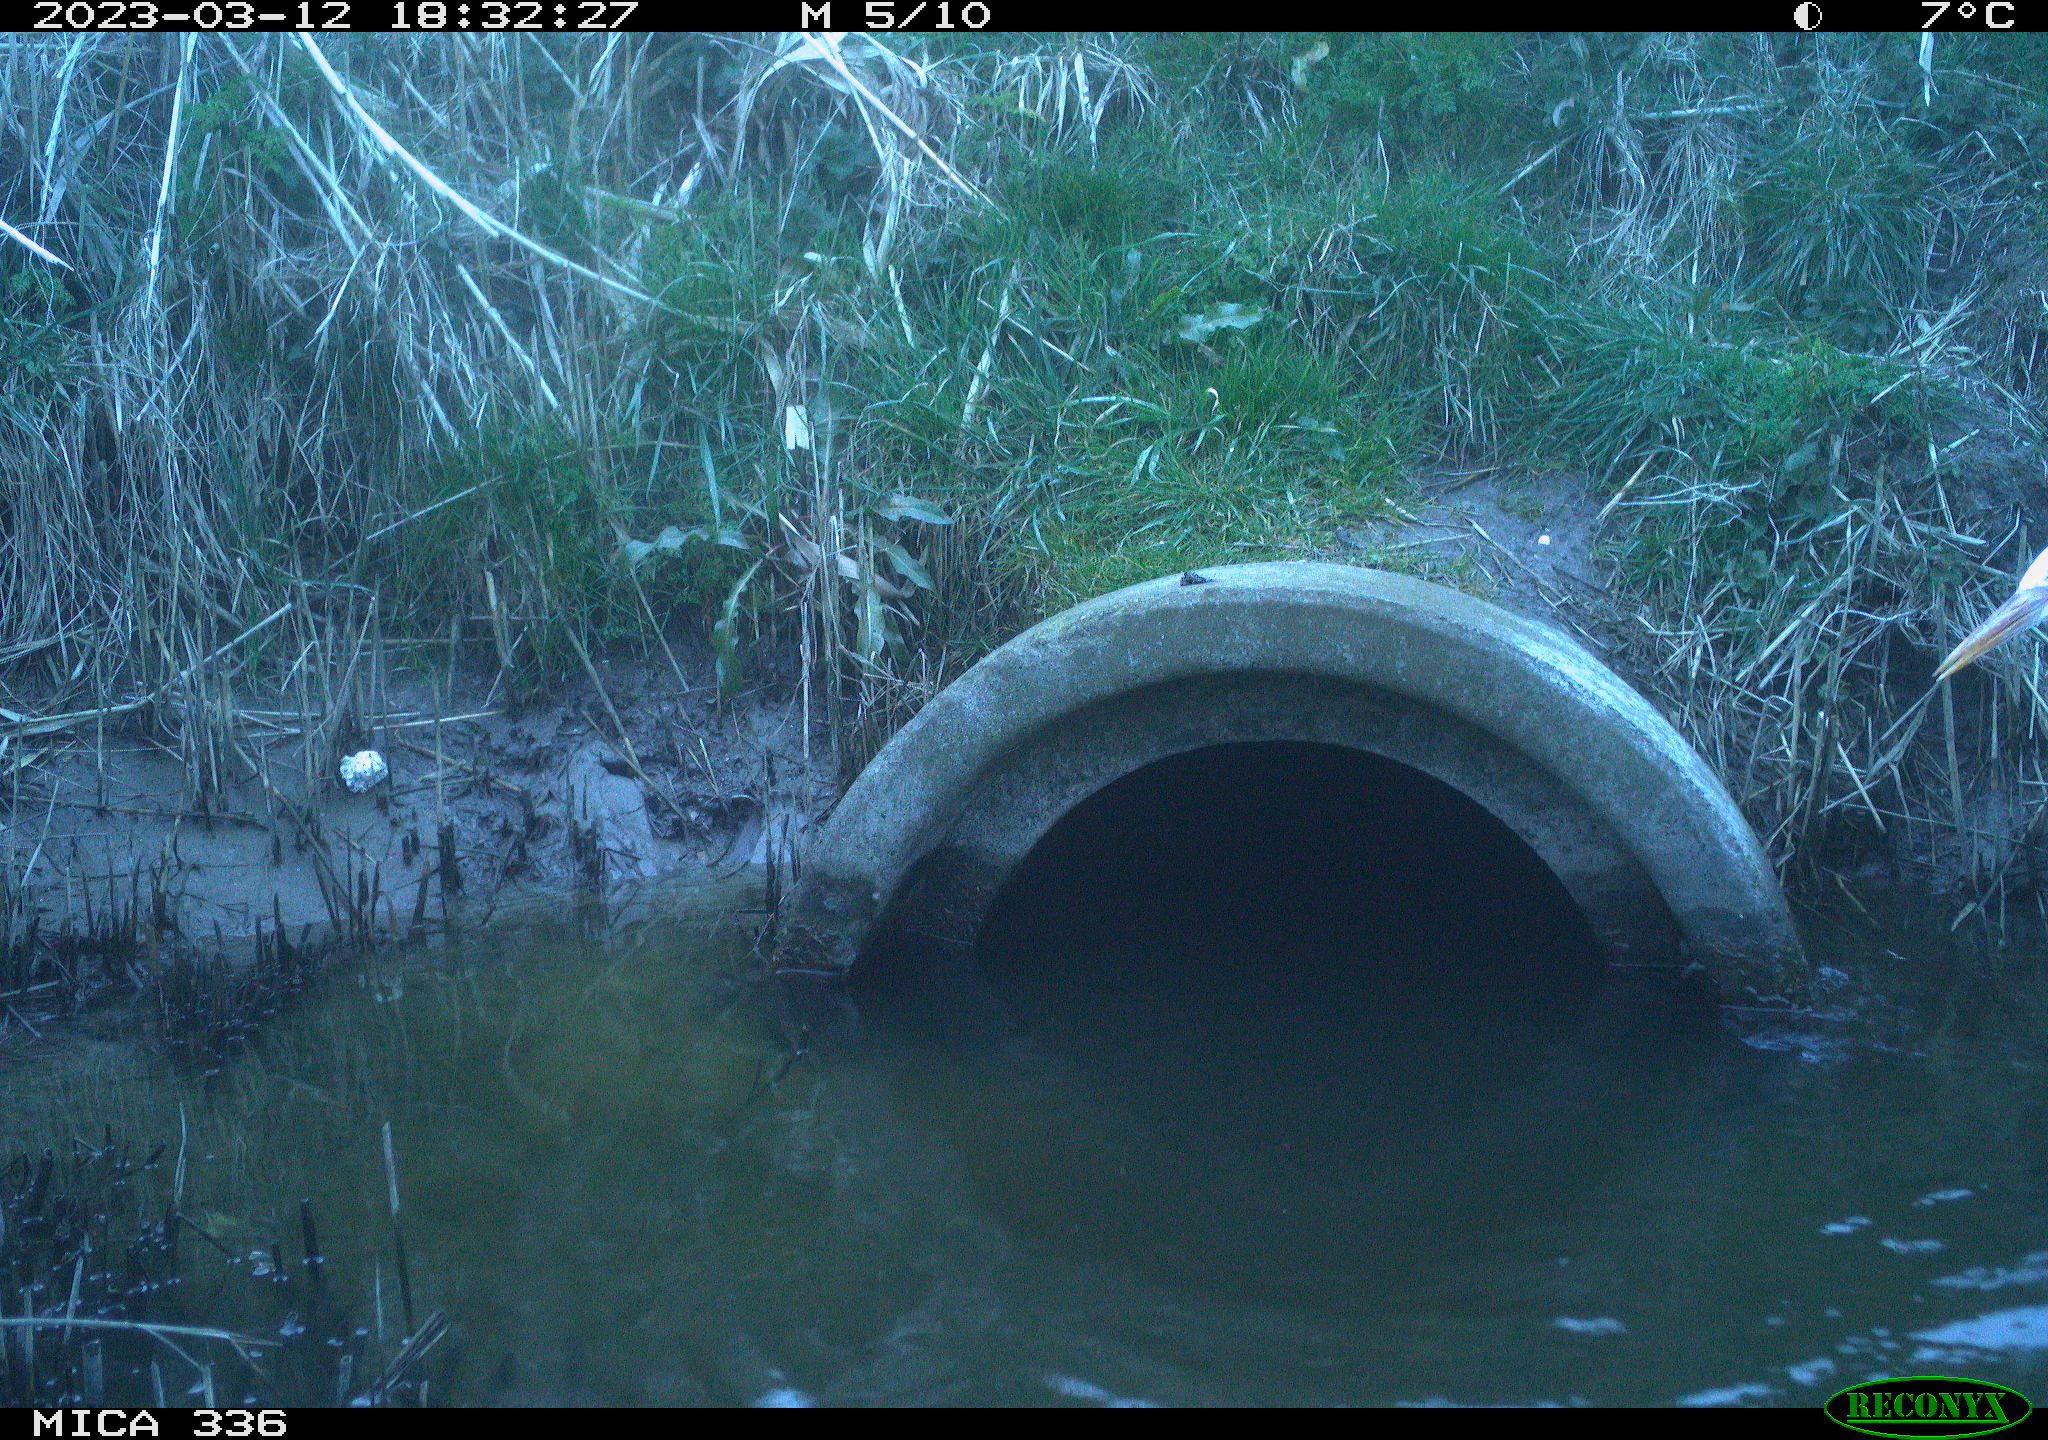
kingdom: Animalia
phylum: Chordata
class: Aves
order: Pelecaniformes
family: Ardeidae
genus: Ardea
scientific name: Ardea cinerea
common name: Grey heron
